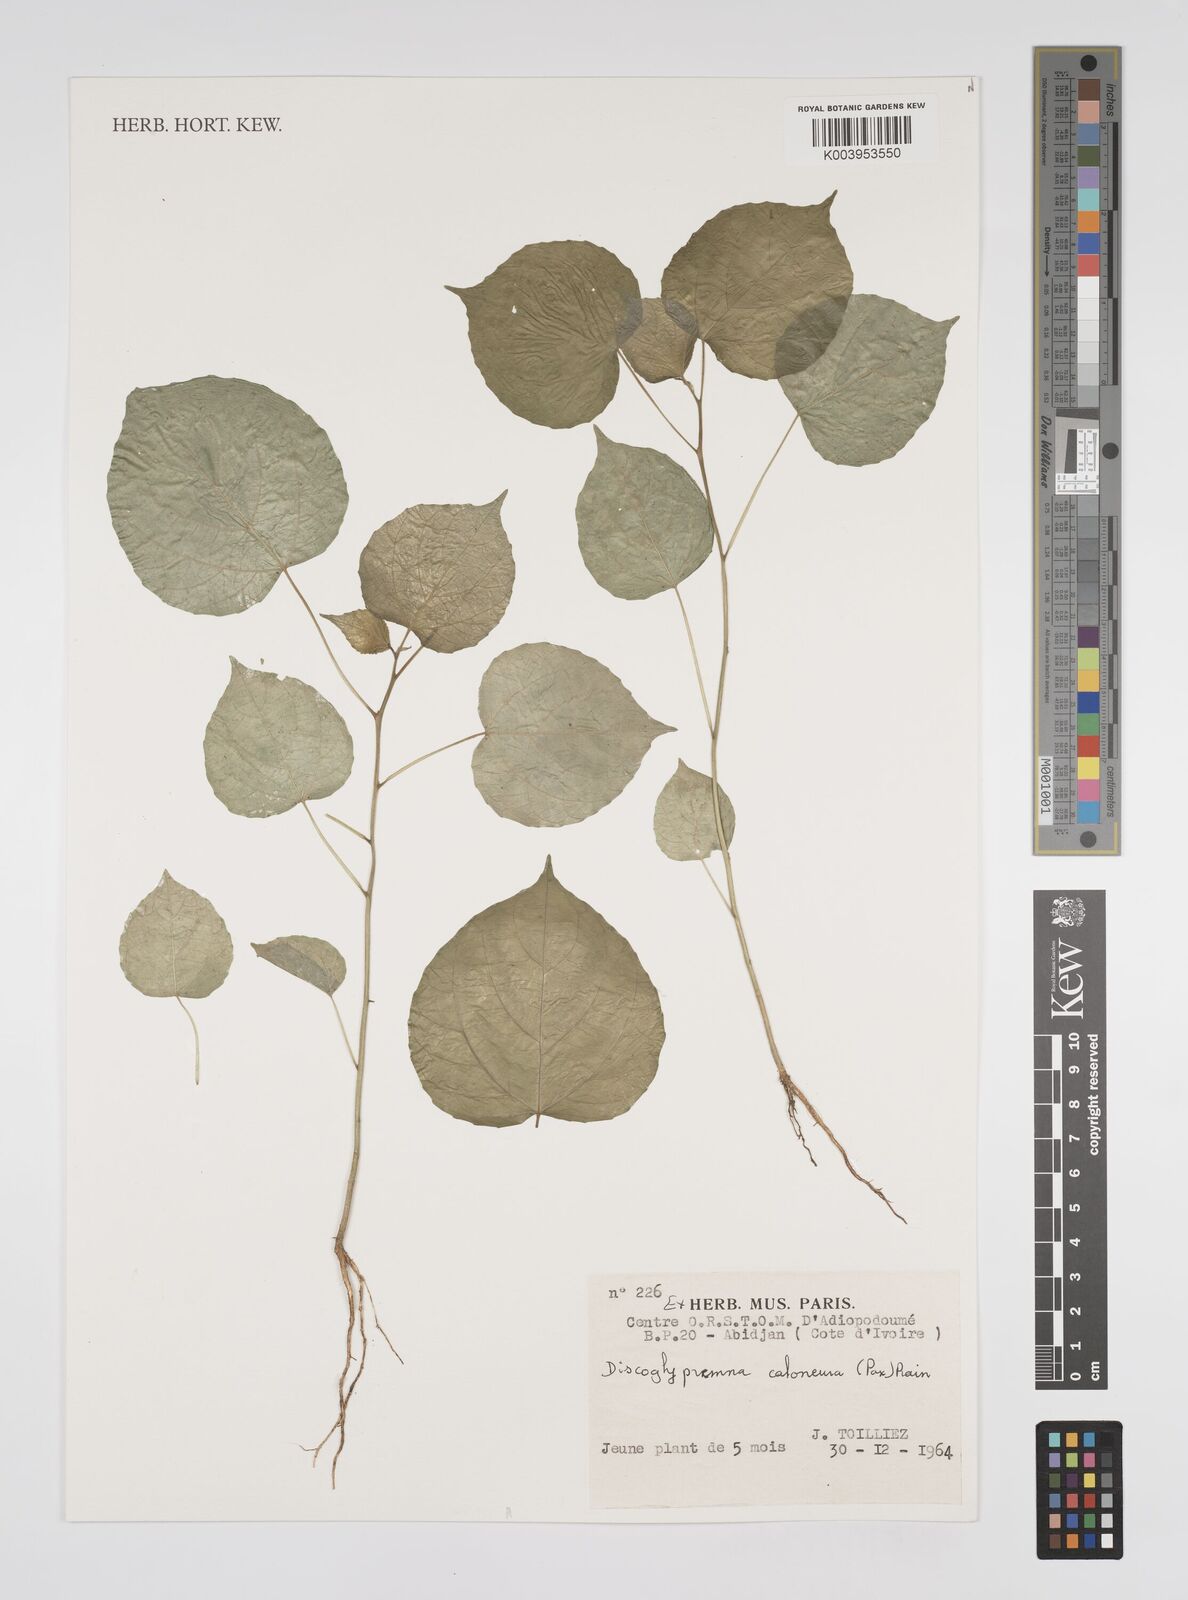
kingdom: Plantae
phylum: Tracheophyta
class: Magnoliopsida
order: Malpighiales
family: Euphorbiaceae
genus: Discoglypremna
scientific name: Discoglypremna caloneura
